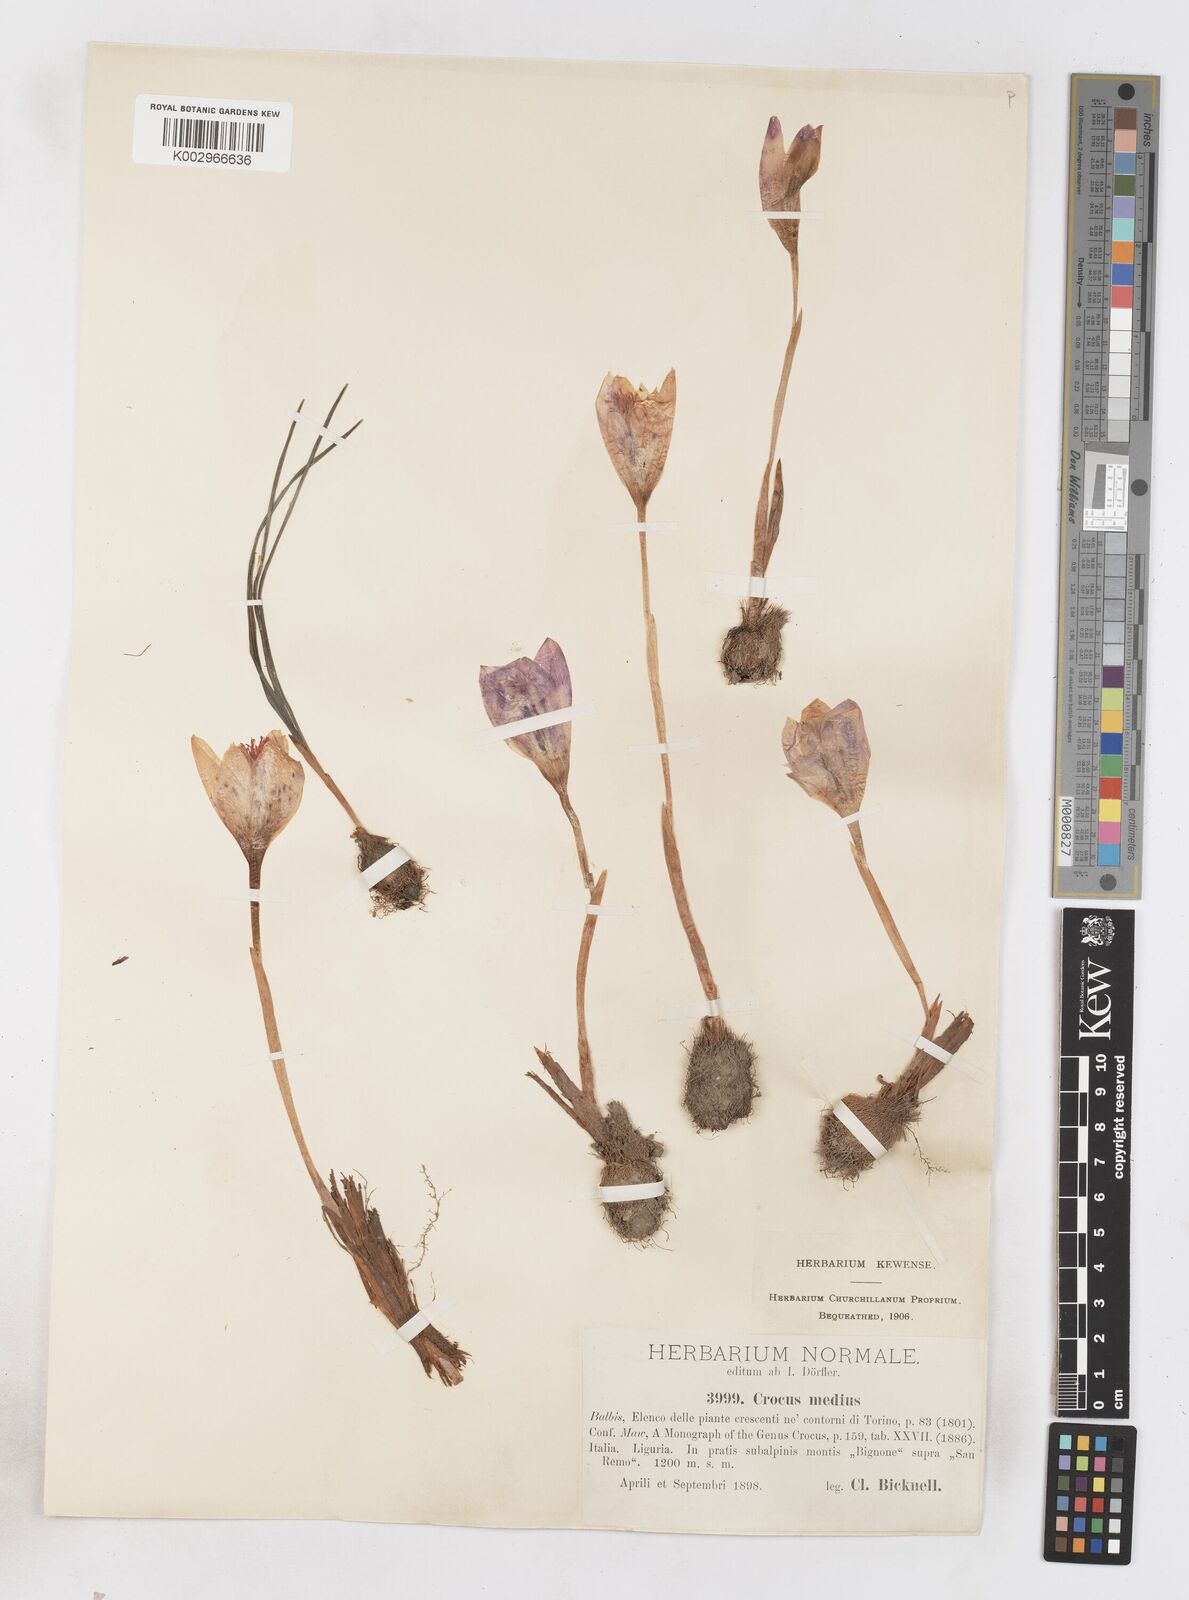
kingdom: Plantae
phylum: Tracheophyta
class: Liliopsida
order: Asparagales
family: Iridaceae
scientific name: Iridaceae
